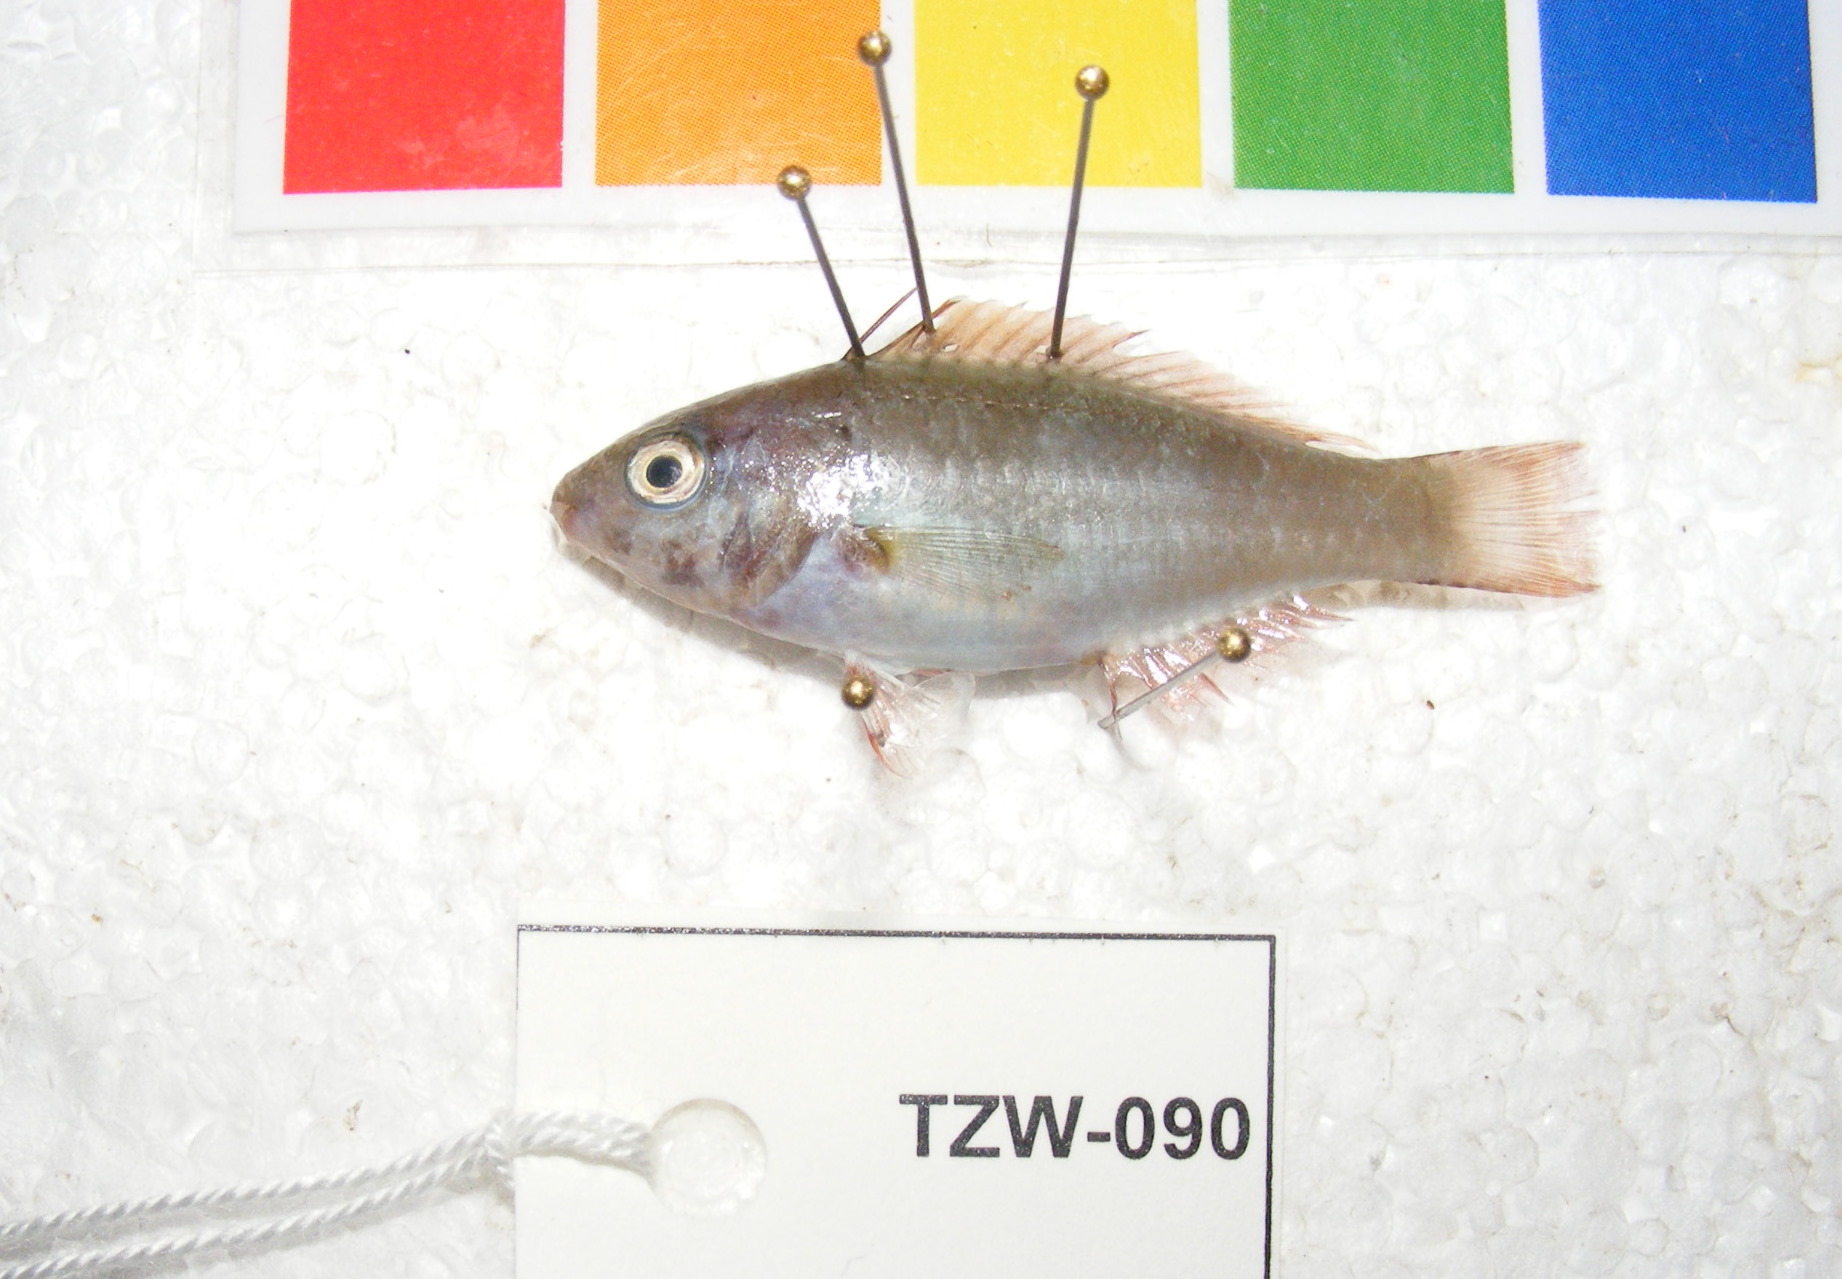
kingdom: Animalia
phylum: Chordata
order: Perciformes
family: Scaridae
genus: Chlorurus
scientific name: Chlorurus sordidus
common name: Bullethead parrotfish
